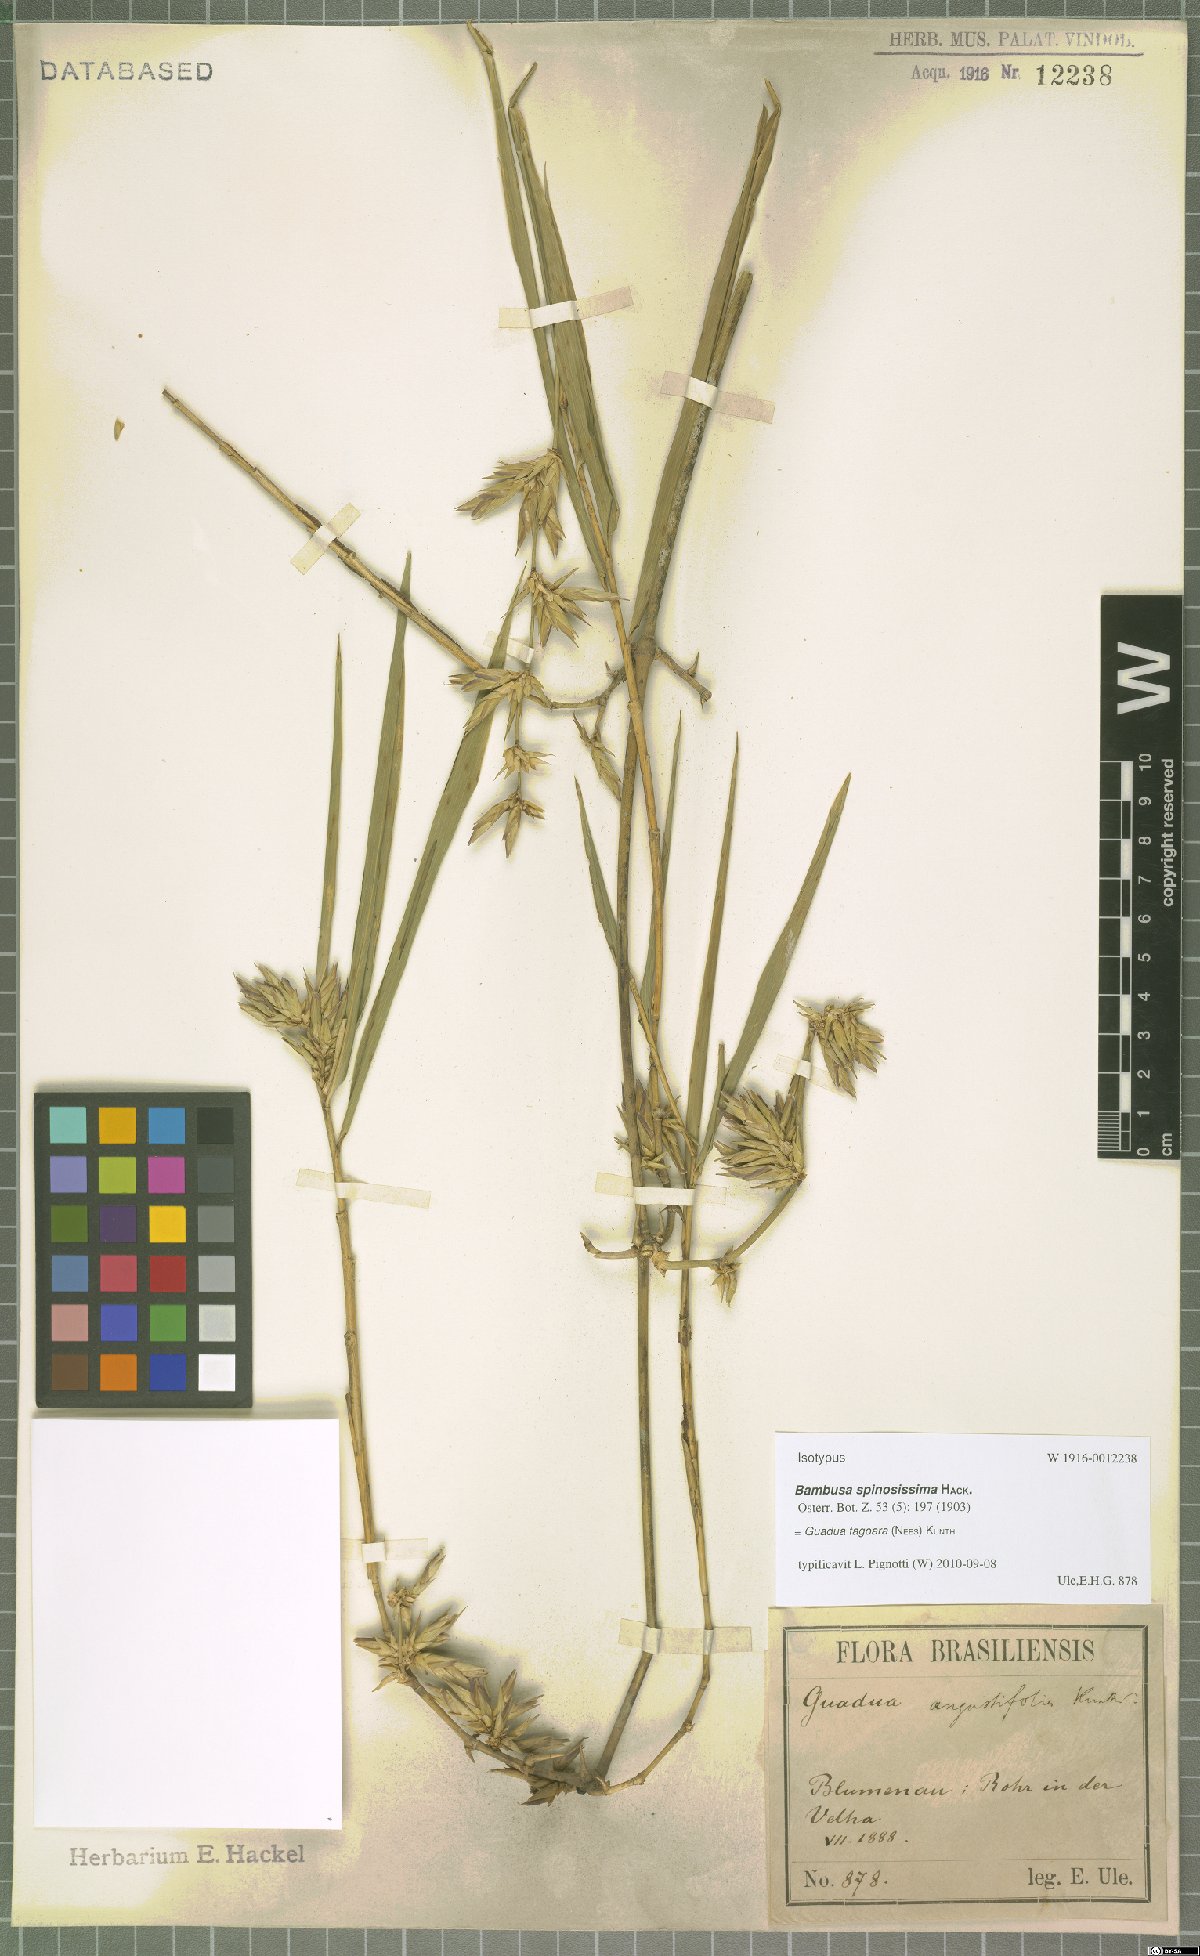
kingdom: Plantae
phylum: Tracheophyta
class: Liliopsida
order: Poales
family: Poaceae
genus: Guadua
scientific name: Guadua tagoara
